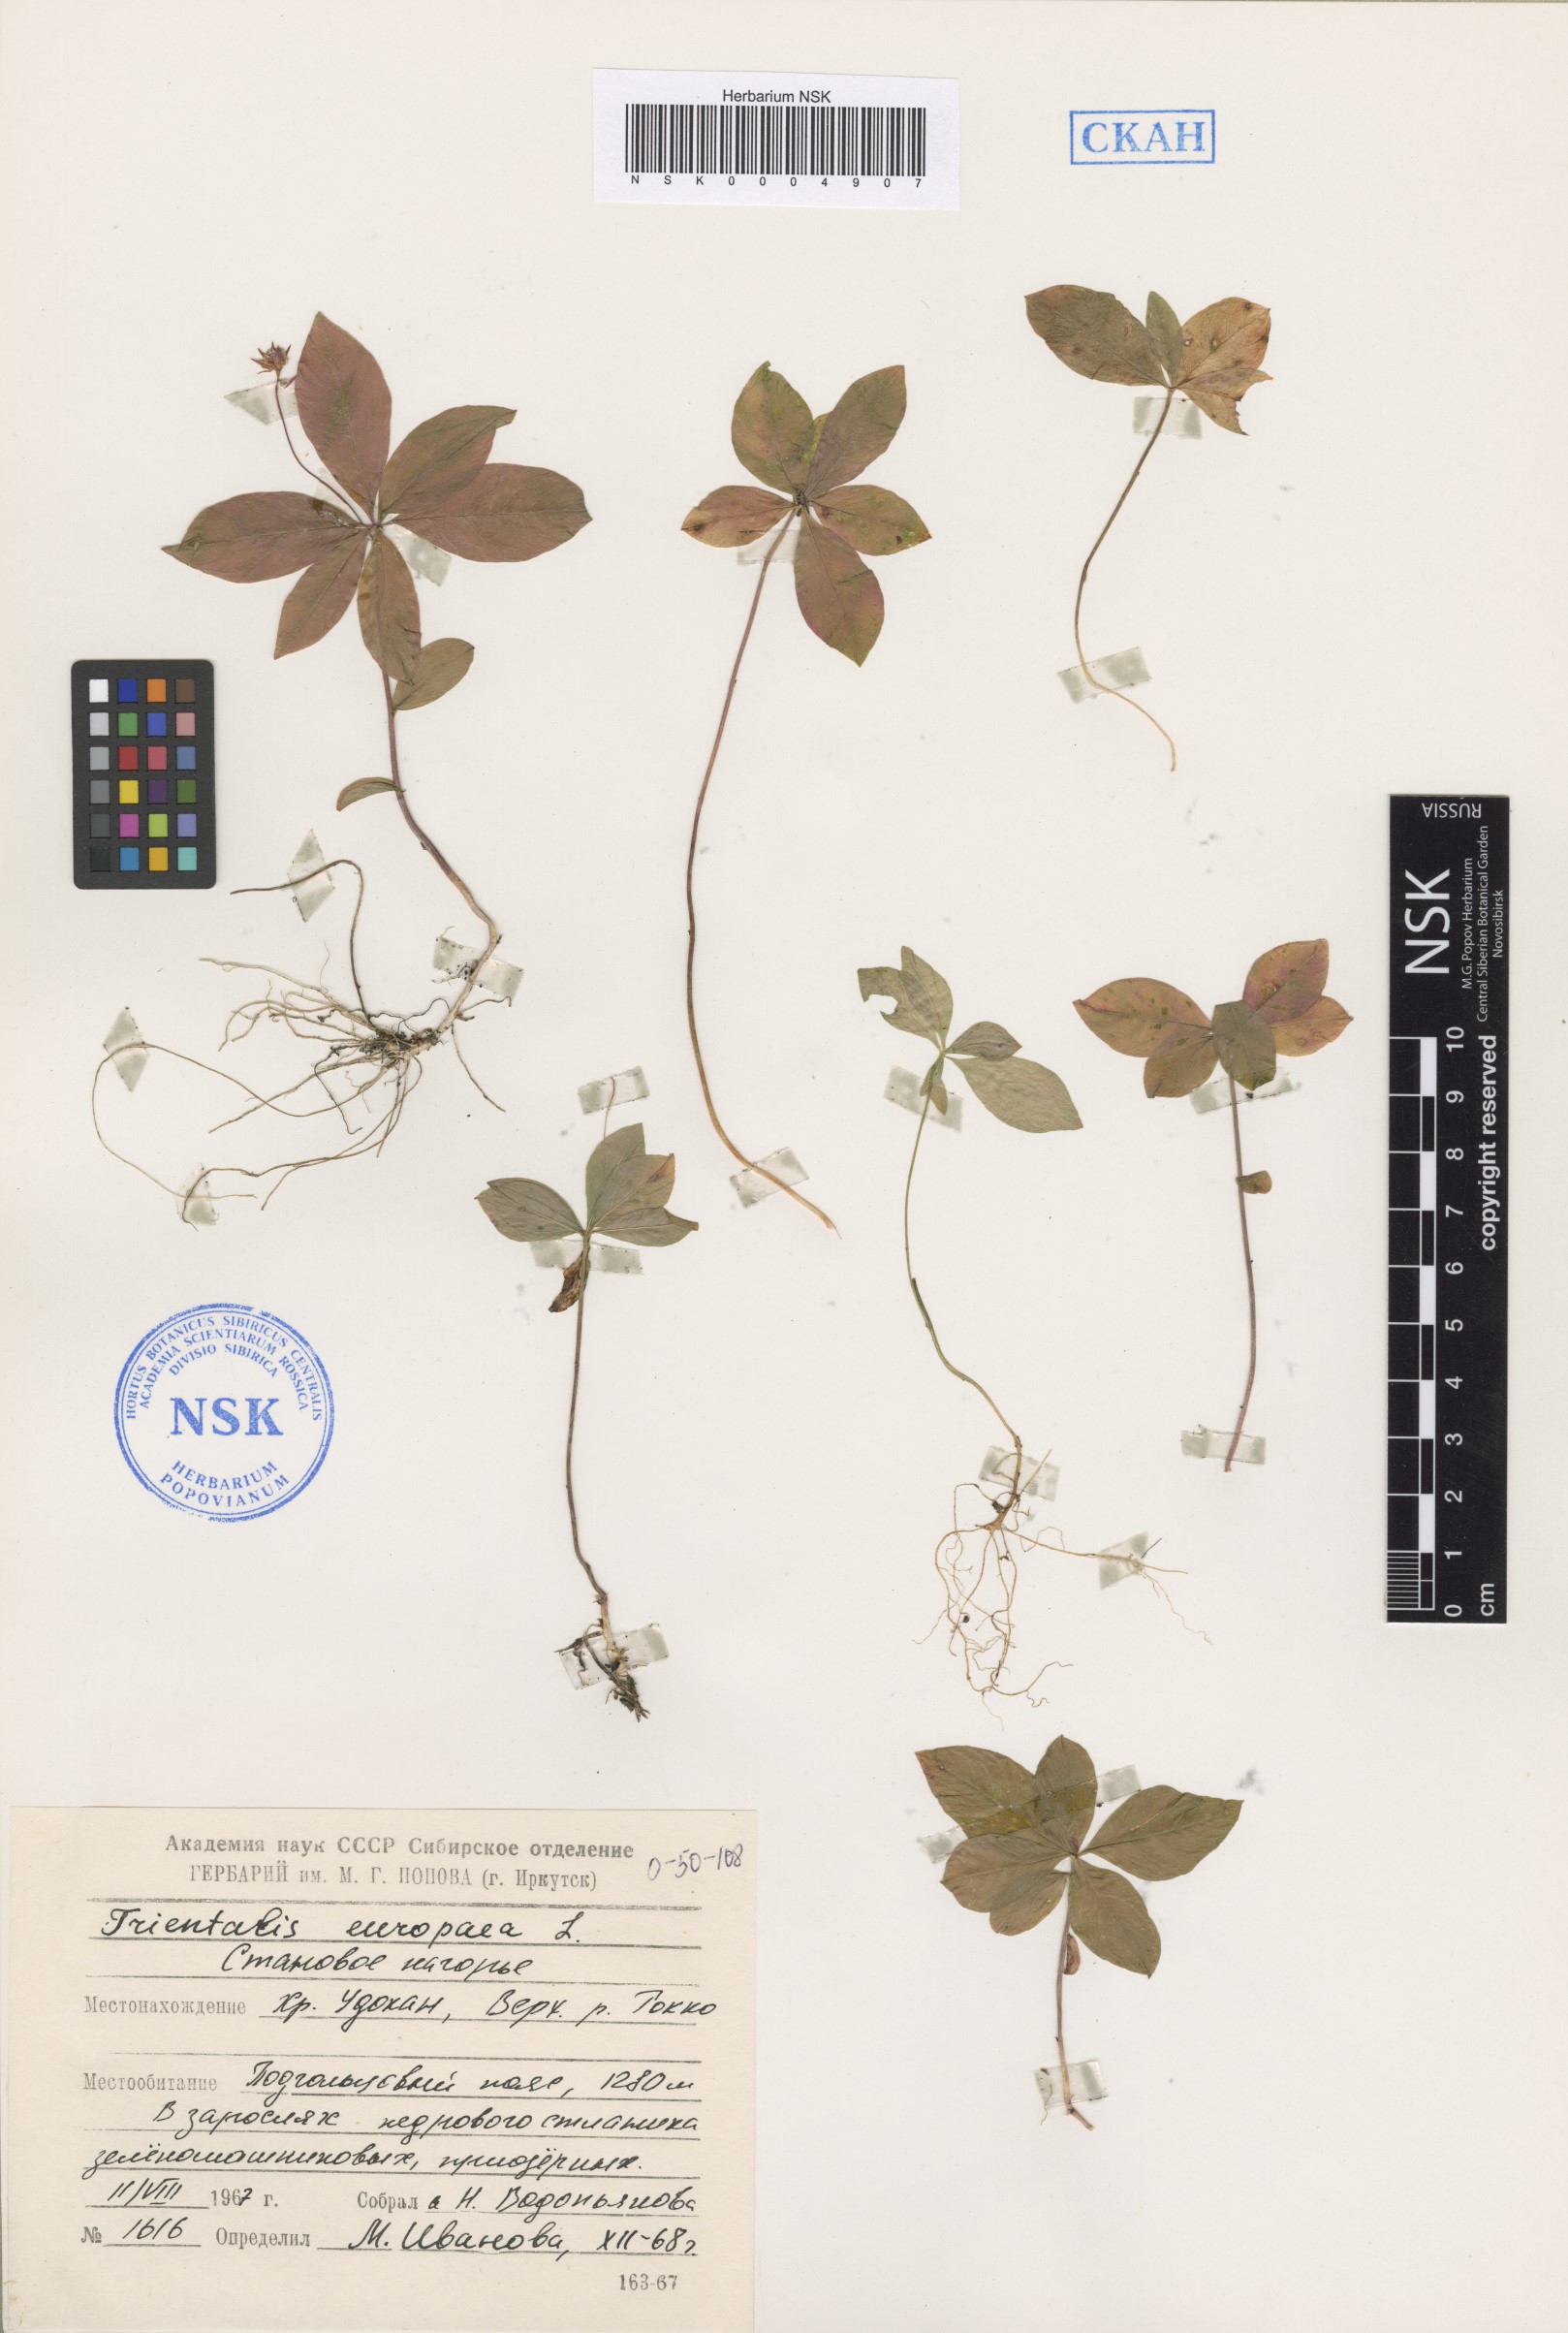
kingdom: Plantae
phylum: Tracheophyta
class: Magnoliopsida
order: Ericales
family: Primulaceae
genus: Lysimachia
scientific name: Lysimachia europaea
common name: Arctic starflower
